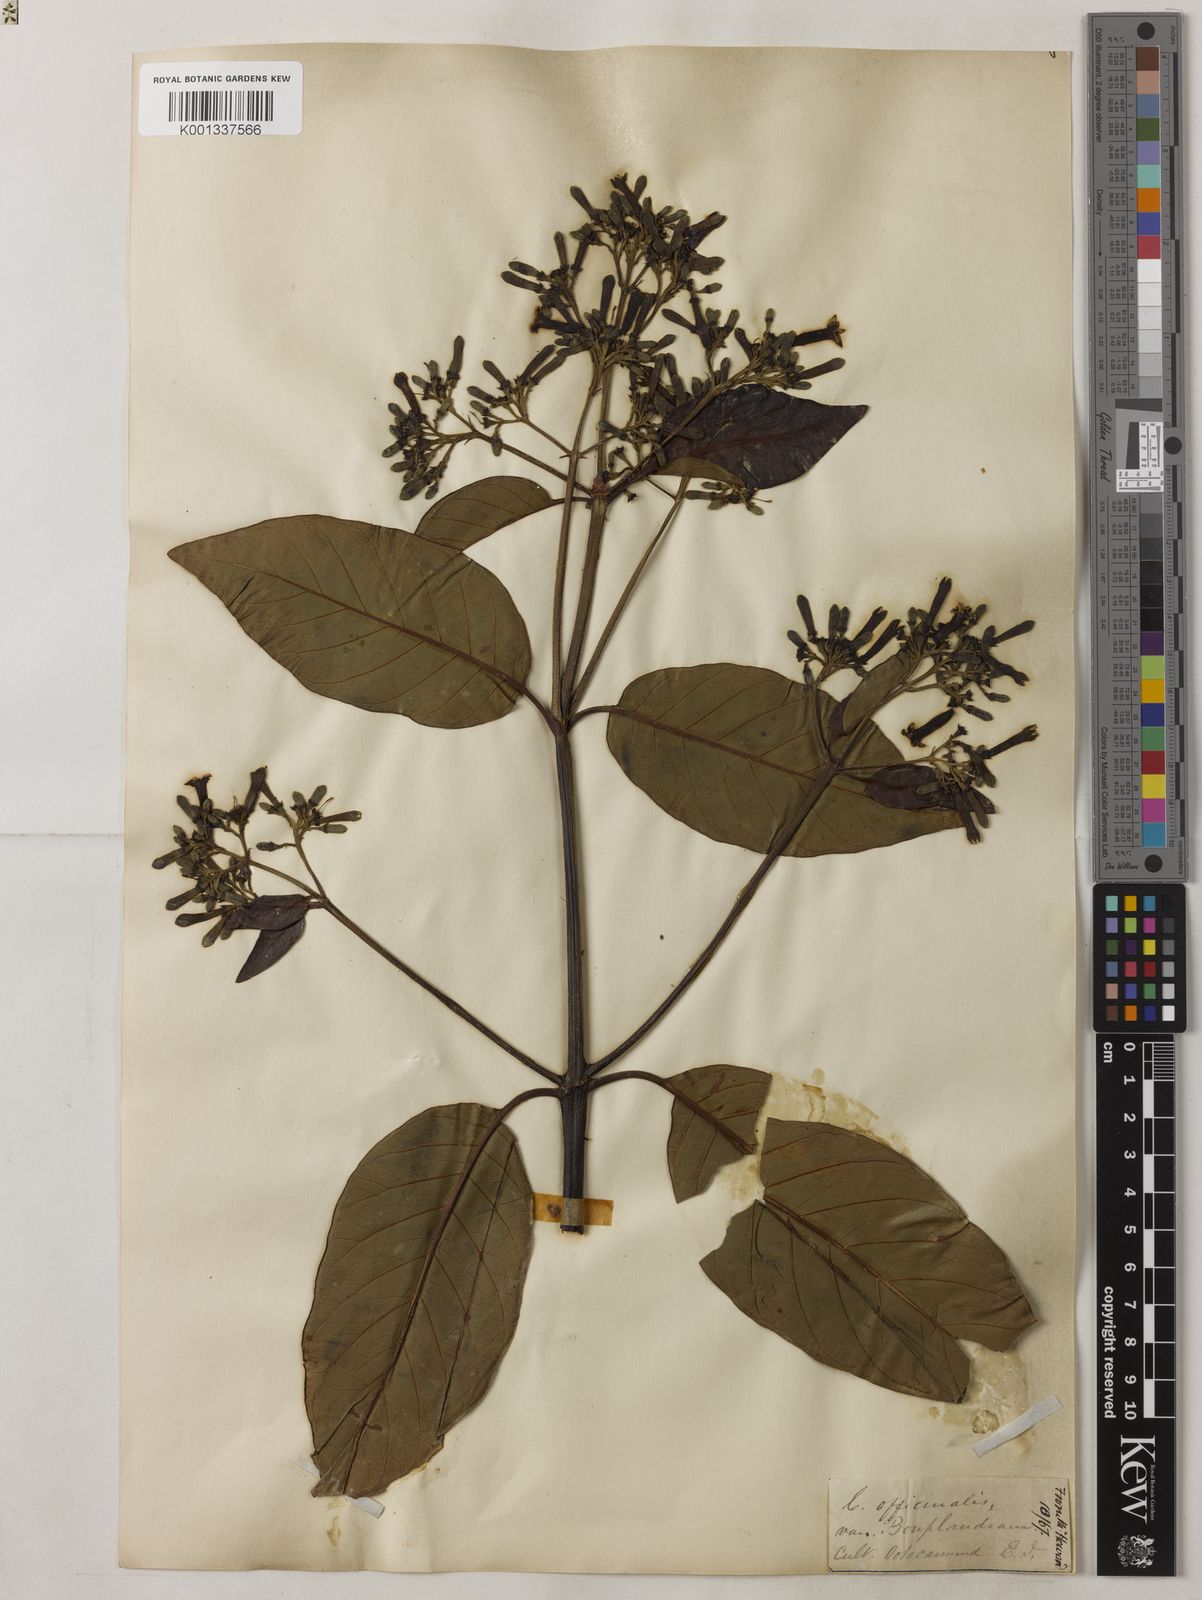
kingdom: Plantae
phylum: Tracheophyta
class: Magnoliopsida
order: Gentianales
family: Rubiaceae
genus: Cinchona
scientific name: Cinchona officinalis
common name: Lojabark
